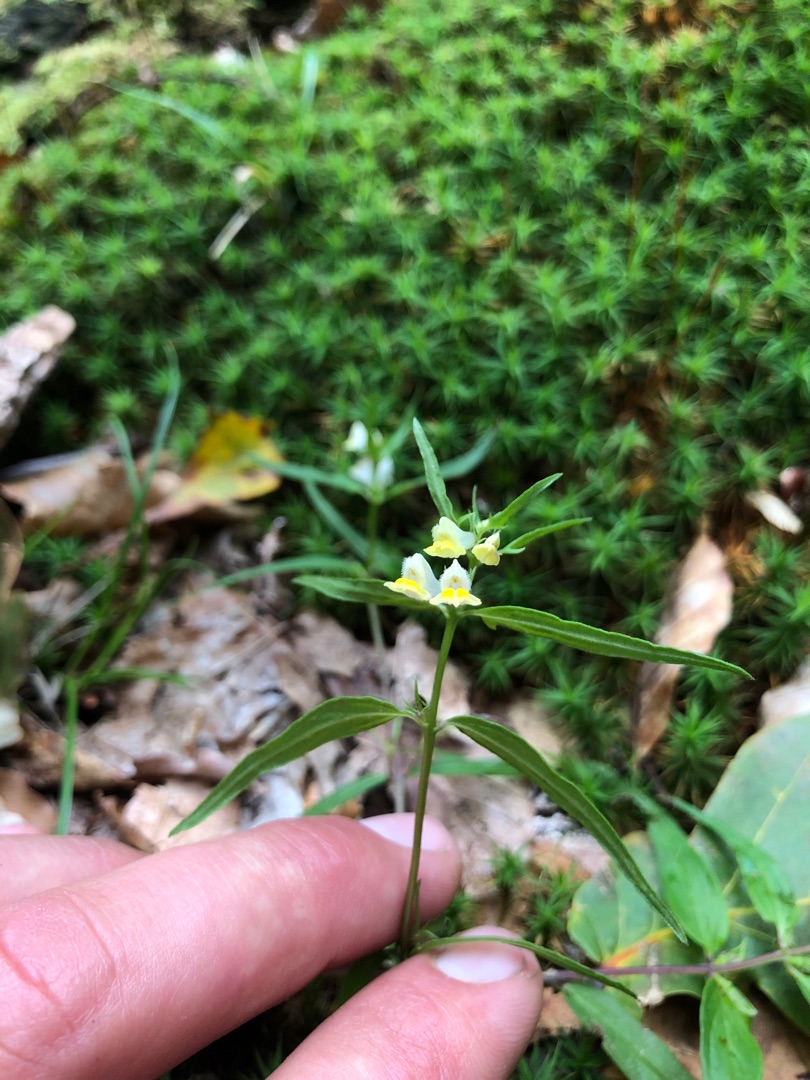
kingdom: Plantae
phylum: Tracheophyta
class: Magnoliopsida
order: Lamiales
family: Orobanchaceae
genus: Melampyrum
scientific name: Melampyrum pratense
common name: Almindelig kohvede
